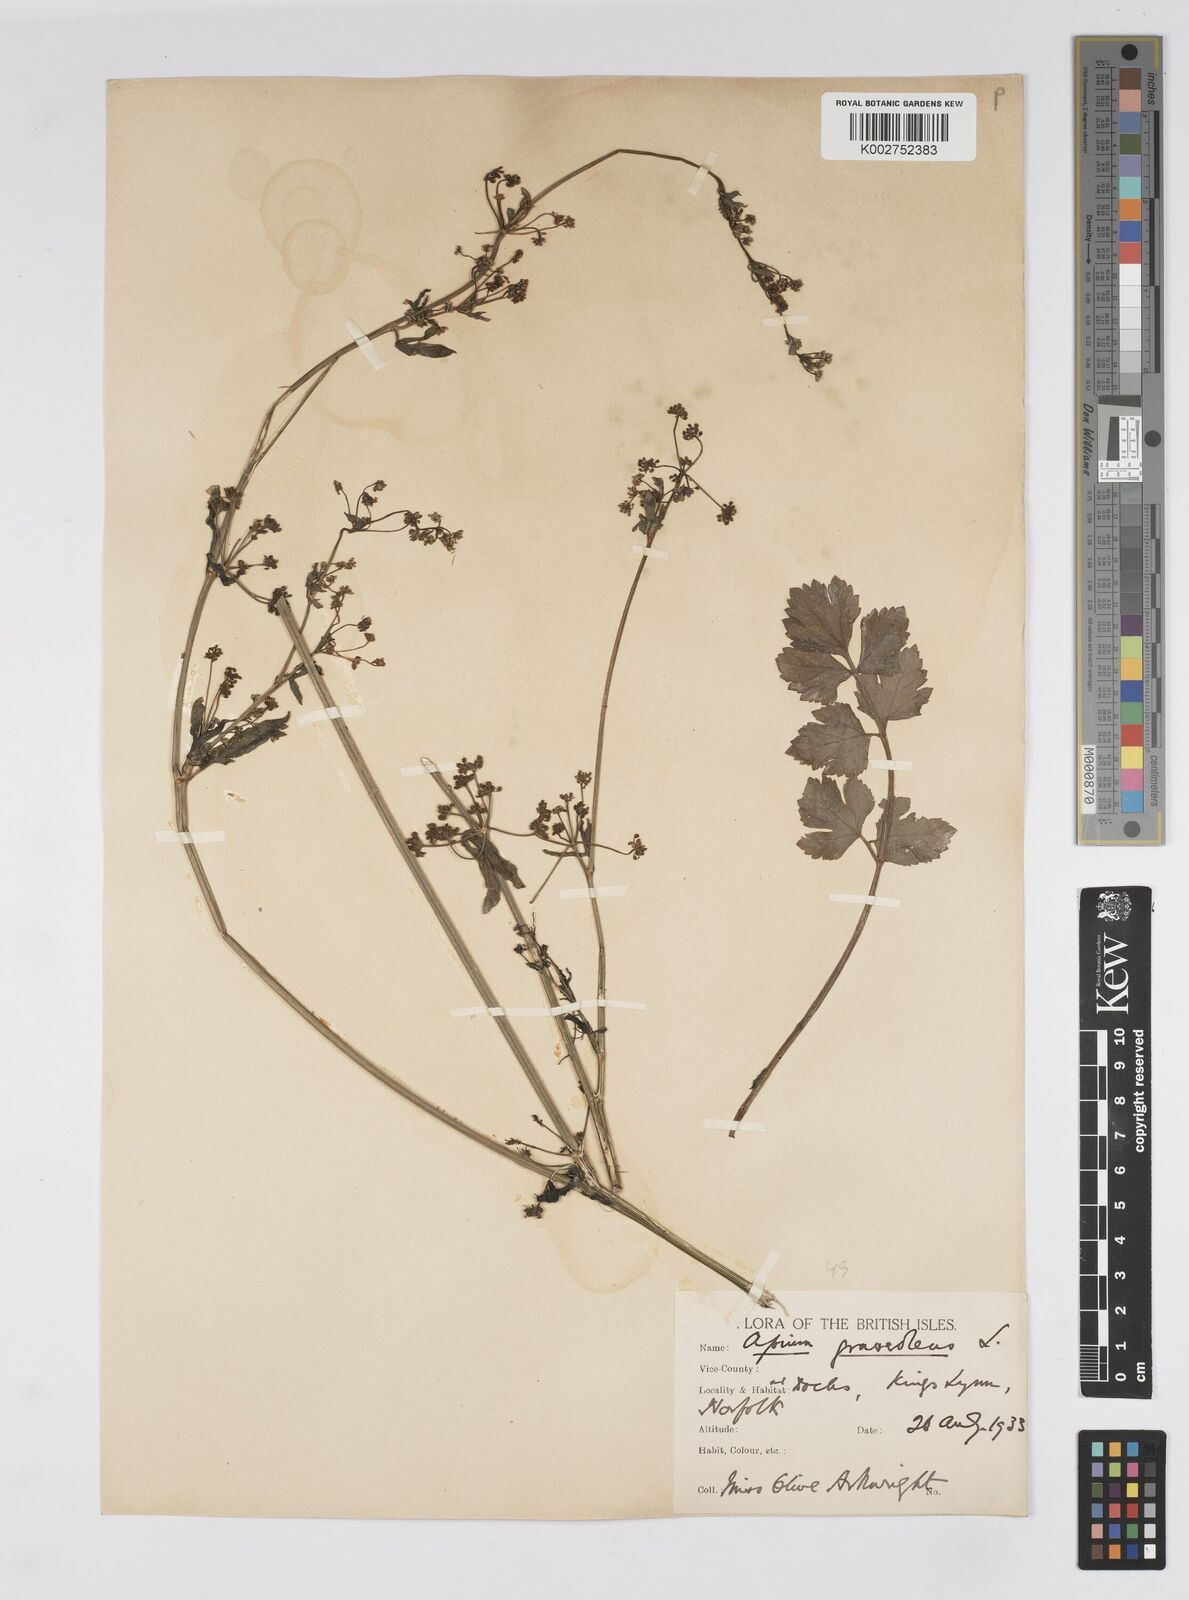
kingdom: Plantae
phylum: Tracheophyta
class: Magnoliopsida
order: Apiales
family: Apiaceae
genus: Apium
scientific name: Apium graveolens
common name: Wild celery
